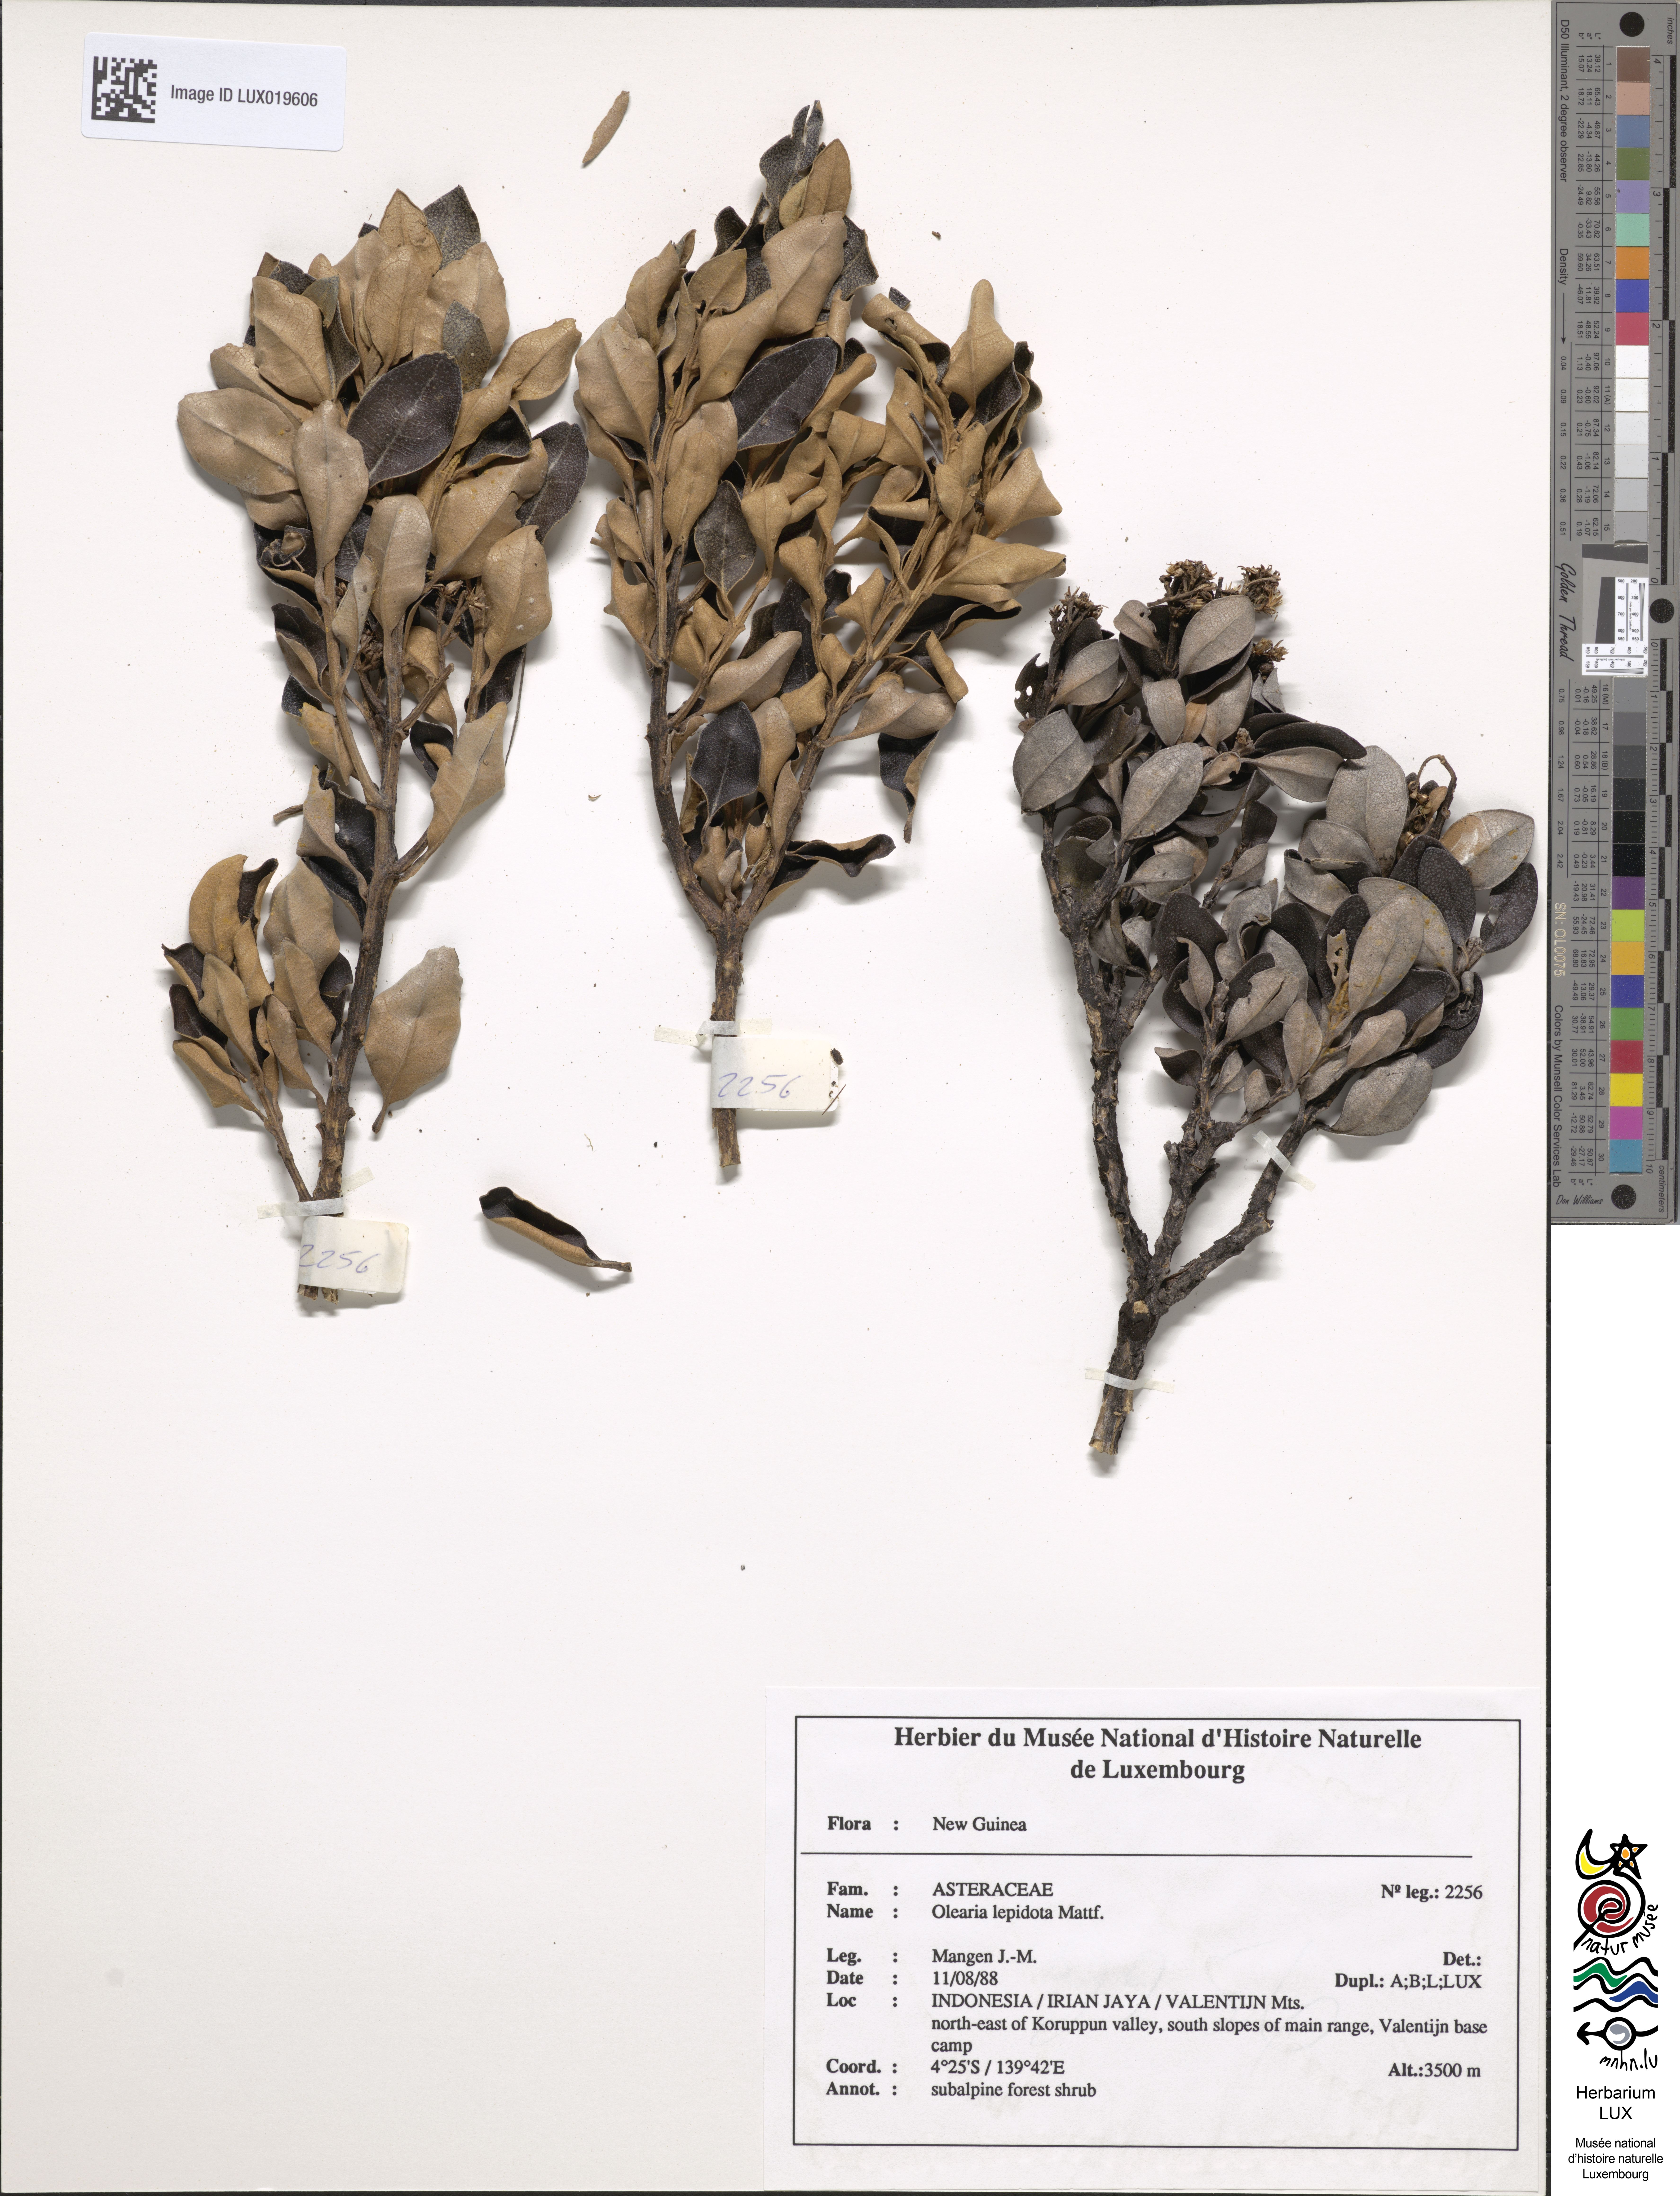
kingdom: Plantae
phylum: Tracheophyta
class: Magnoliopsida
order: Asterales
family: Asteraceae
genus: Olearia
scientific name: Olearia lepidota
